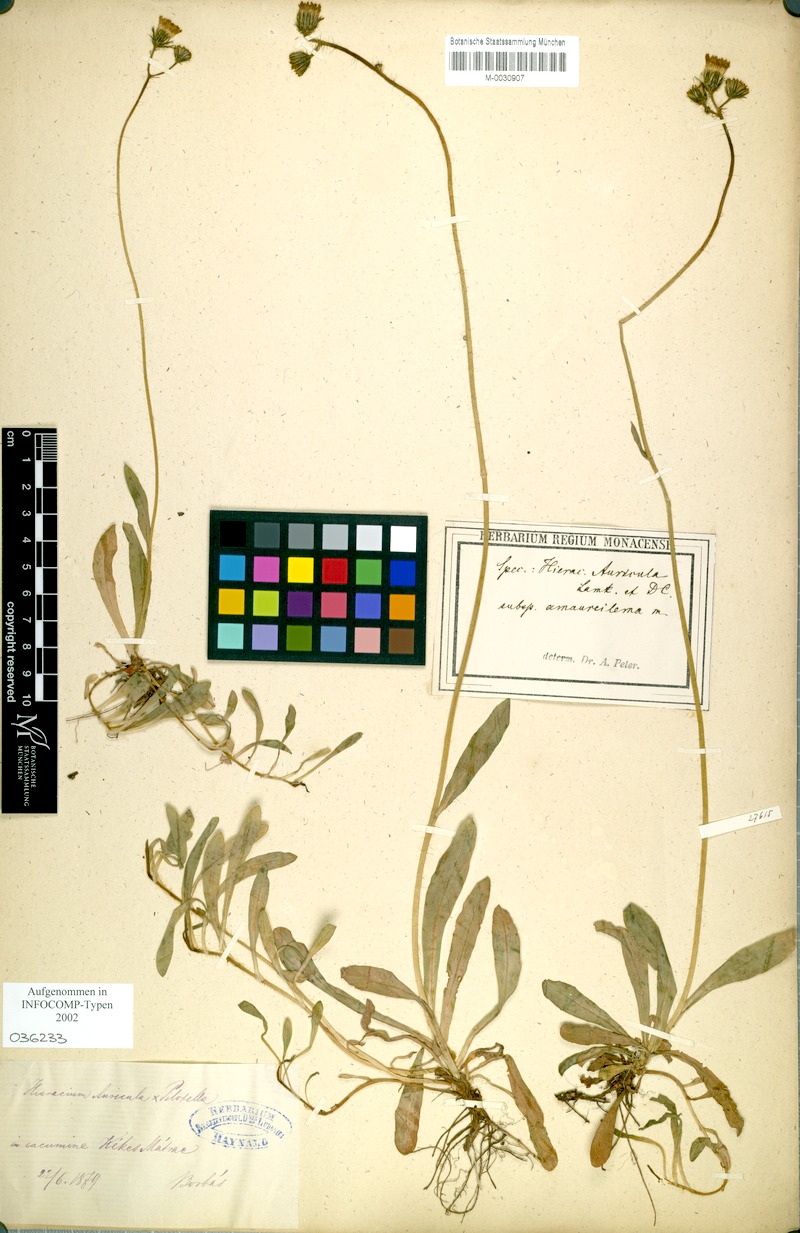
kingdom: Plantae
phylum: Tracheophyta
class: Magnoliopsida
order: Asterales
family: Asteraceae
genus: Pilosella
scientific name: Pilosella lactucella
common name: Glaucous fox-and-cubs
